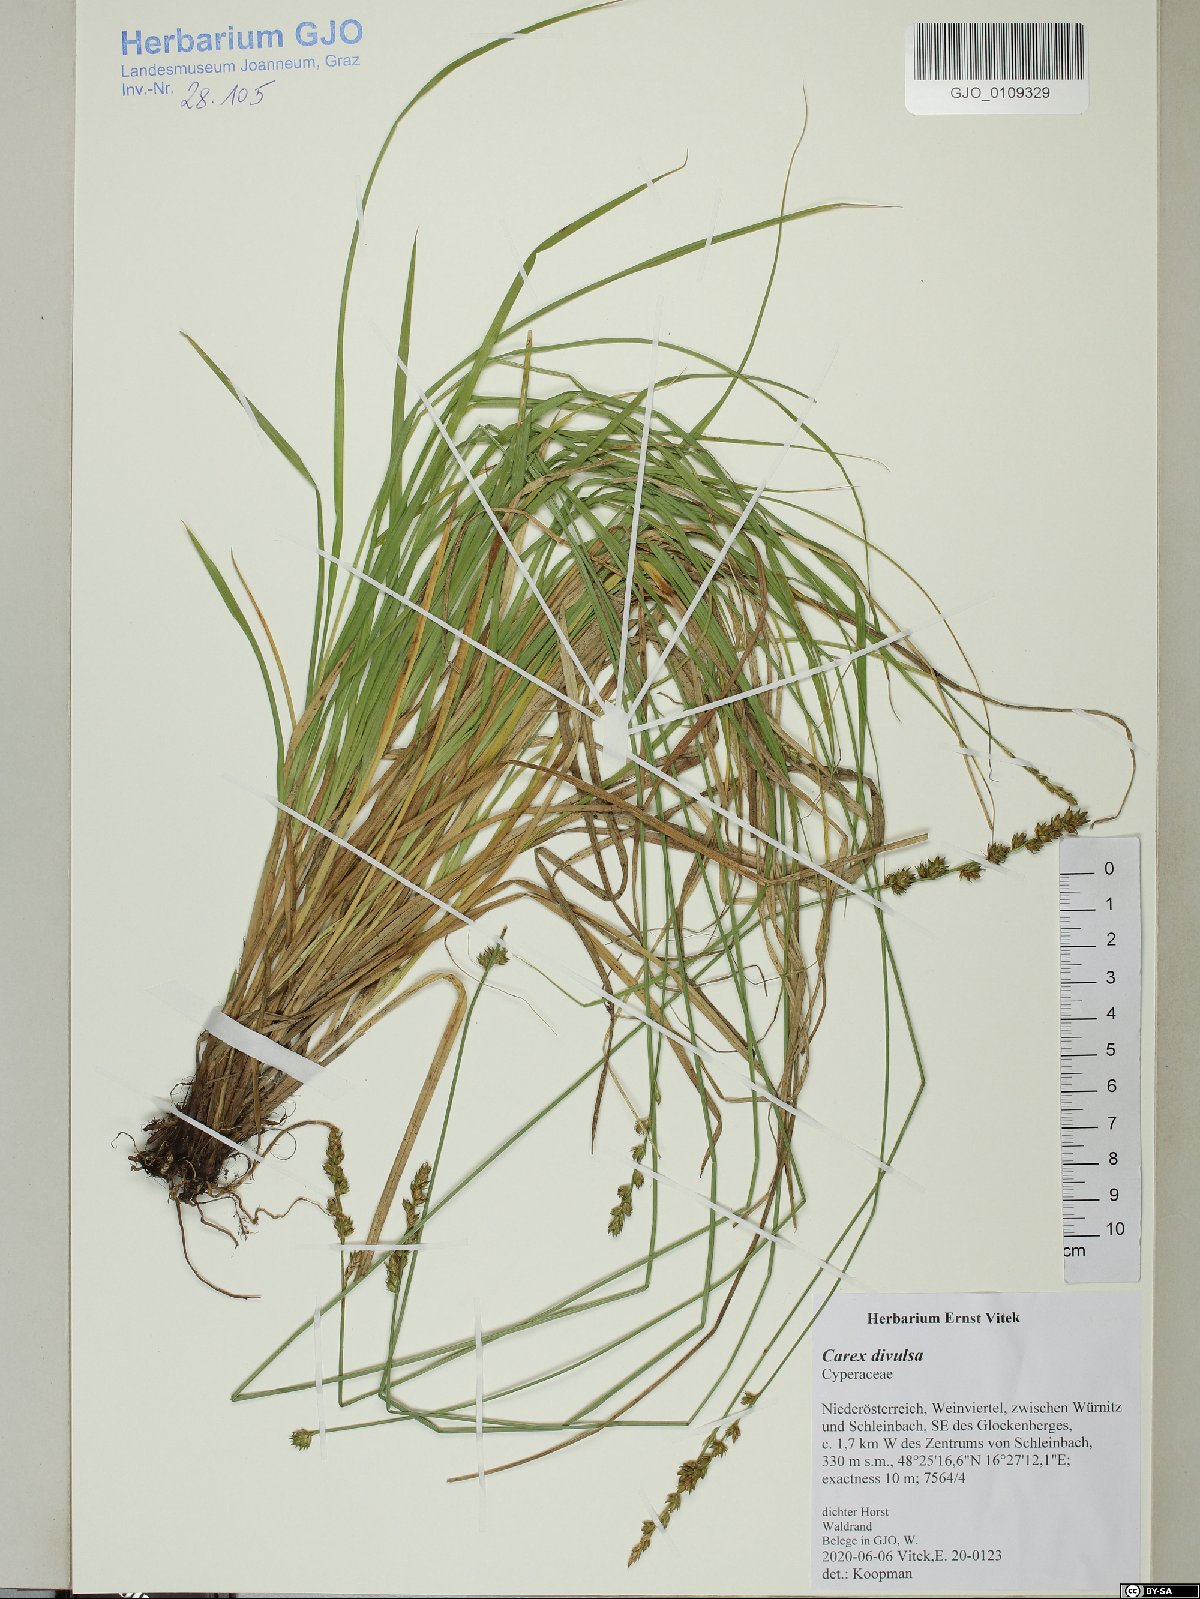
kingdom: Plantae
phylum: Tracheophyta
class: Liliopsida
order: Poales
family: Cyperaceae
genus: Carex
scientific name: Carex divulsa
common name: Grassland sedge
